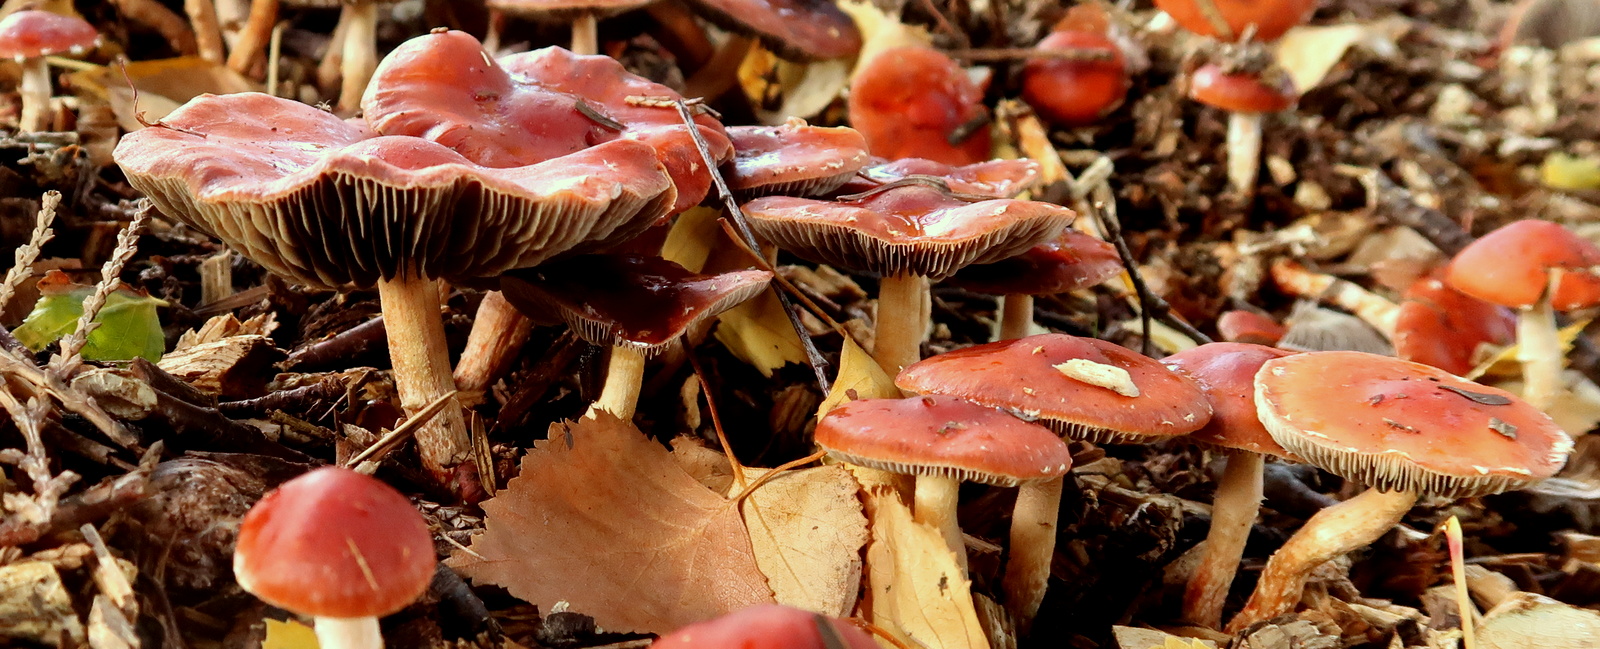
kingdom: Fungi
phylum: Basidiomycota
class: Agaricomycetes
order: Agaricales
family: Strophariaceae
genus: Leratiomyces
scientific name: Leratiomyces ceres
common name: orange bredblad
